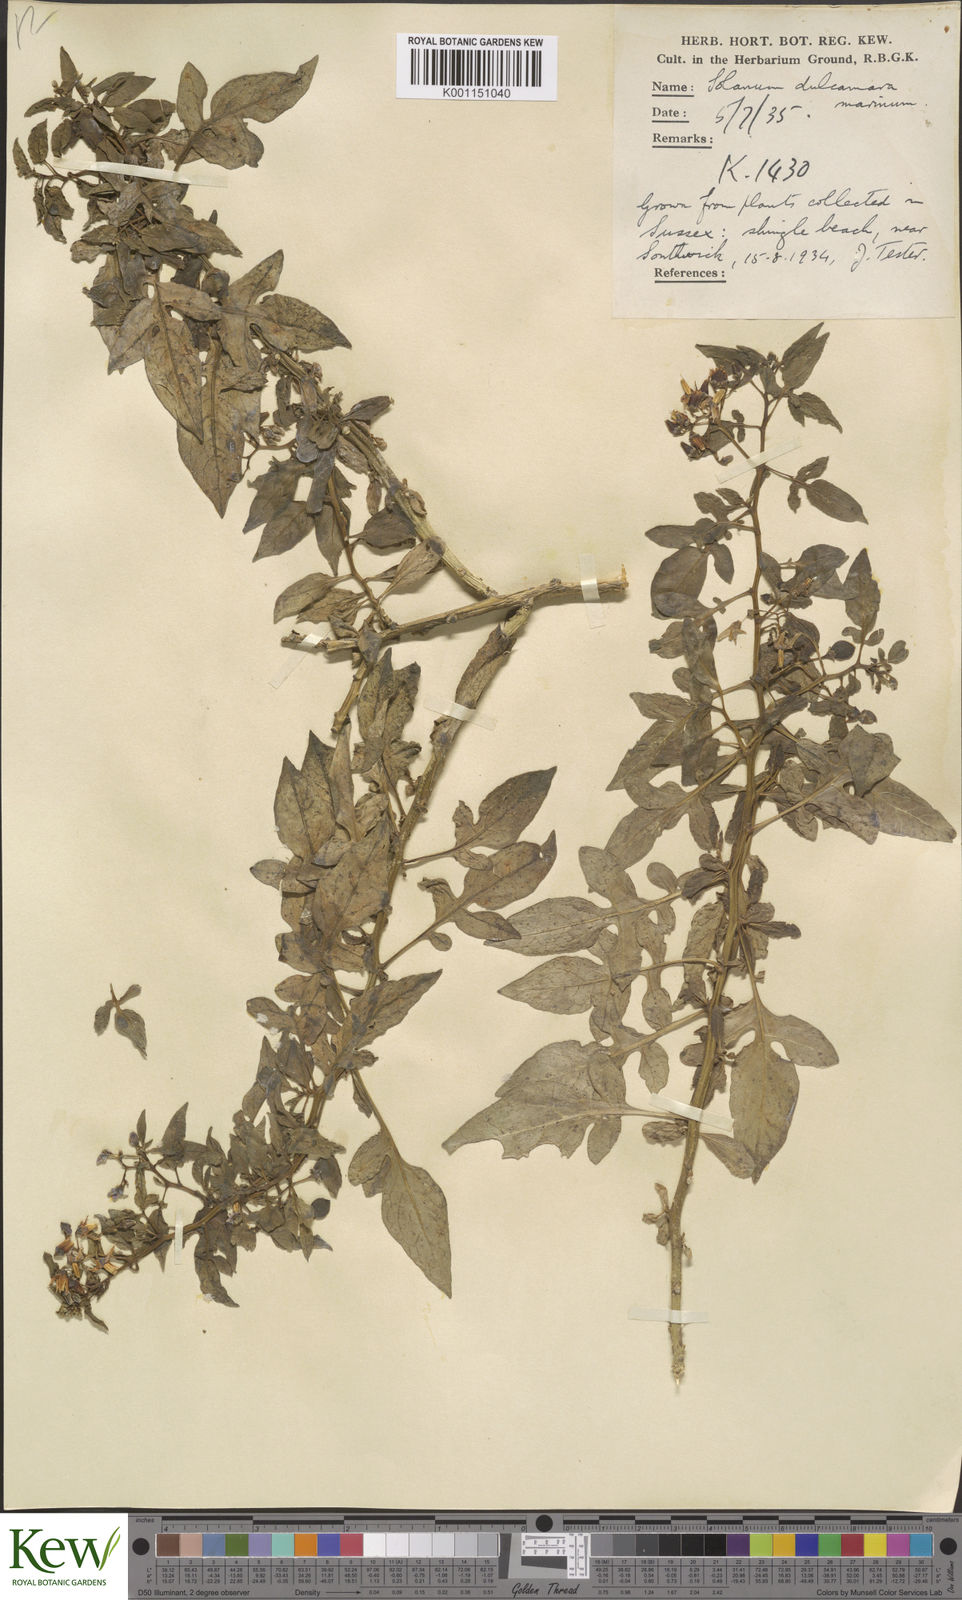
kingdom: Plantae
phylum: Tracheophyta
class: Magnoliopsida
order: Solanales
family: Solanaceae
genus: Solanum
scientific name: Solanum dulcamara
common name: Climbing nightshade
